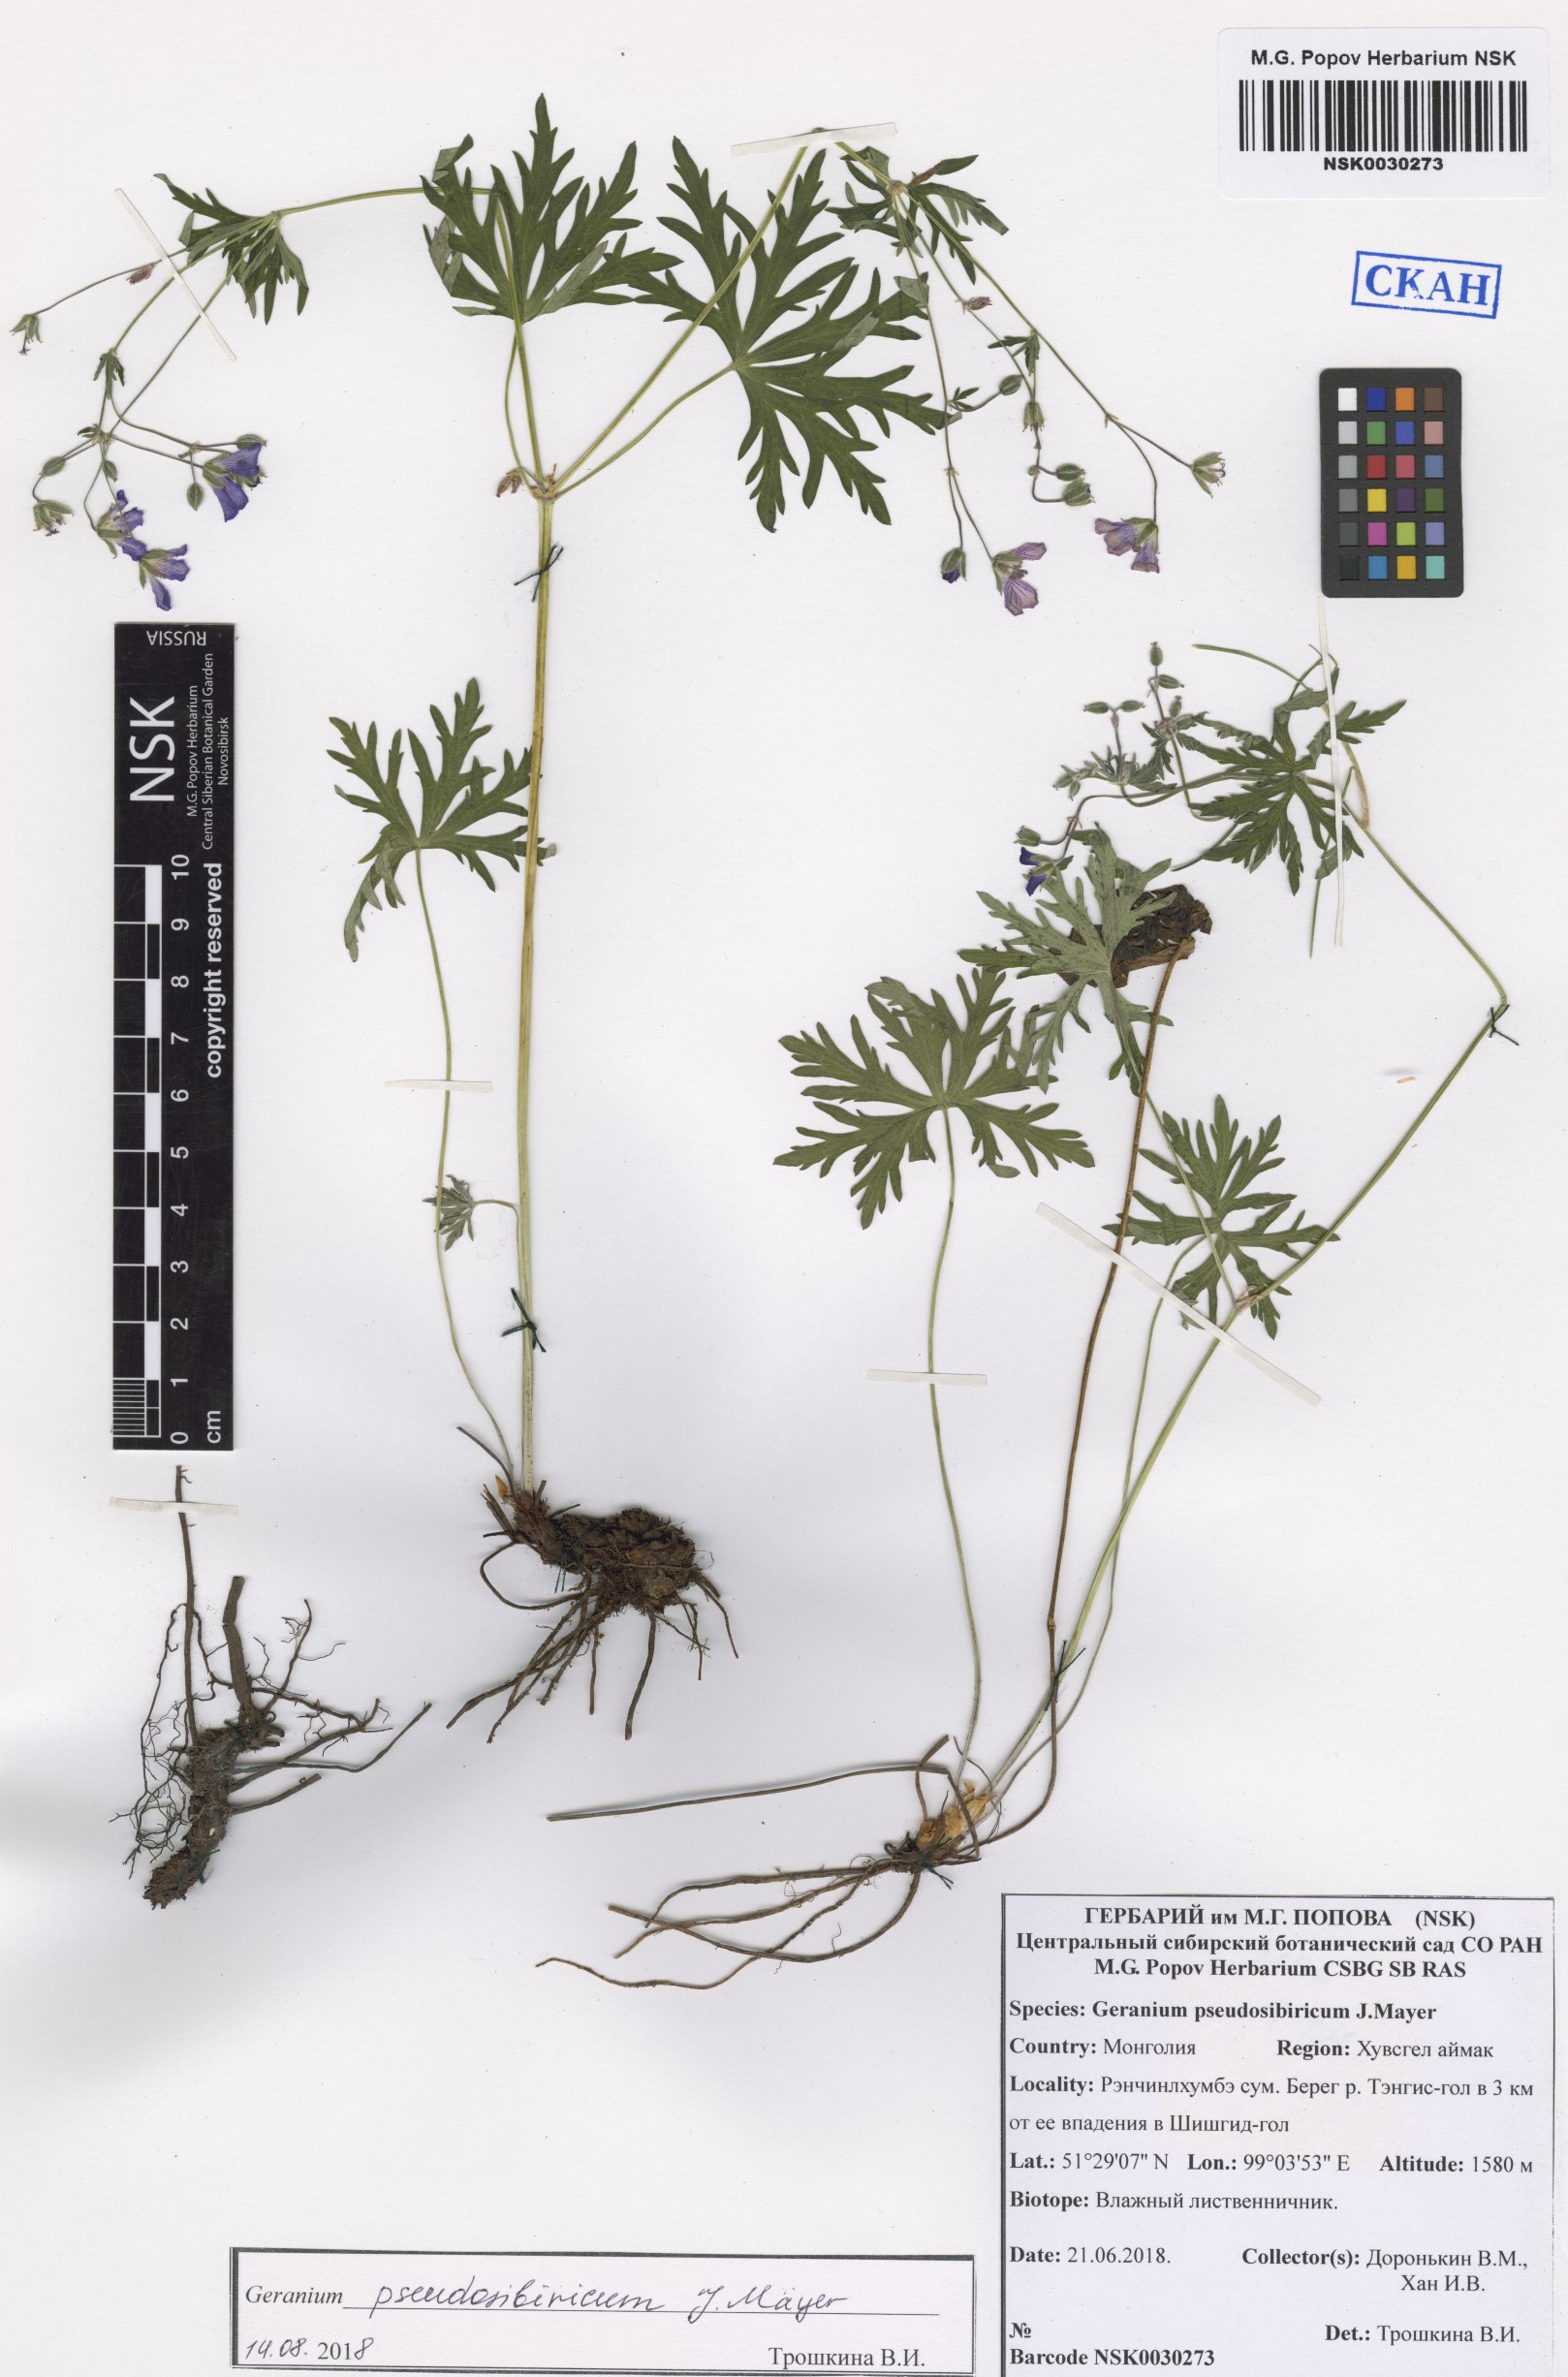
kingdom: Plantae
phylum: Tracheophyta
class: Magnoliopsida
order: Geraniales
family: Geraniaceae
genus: Geranium
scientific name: Geranium pseudosibiricum
